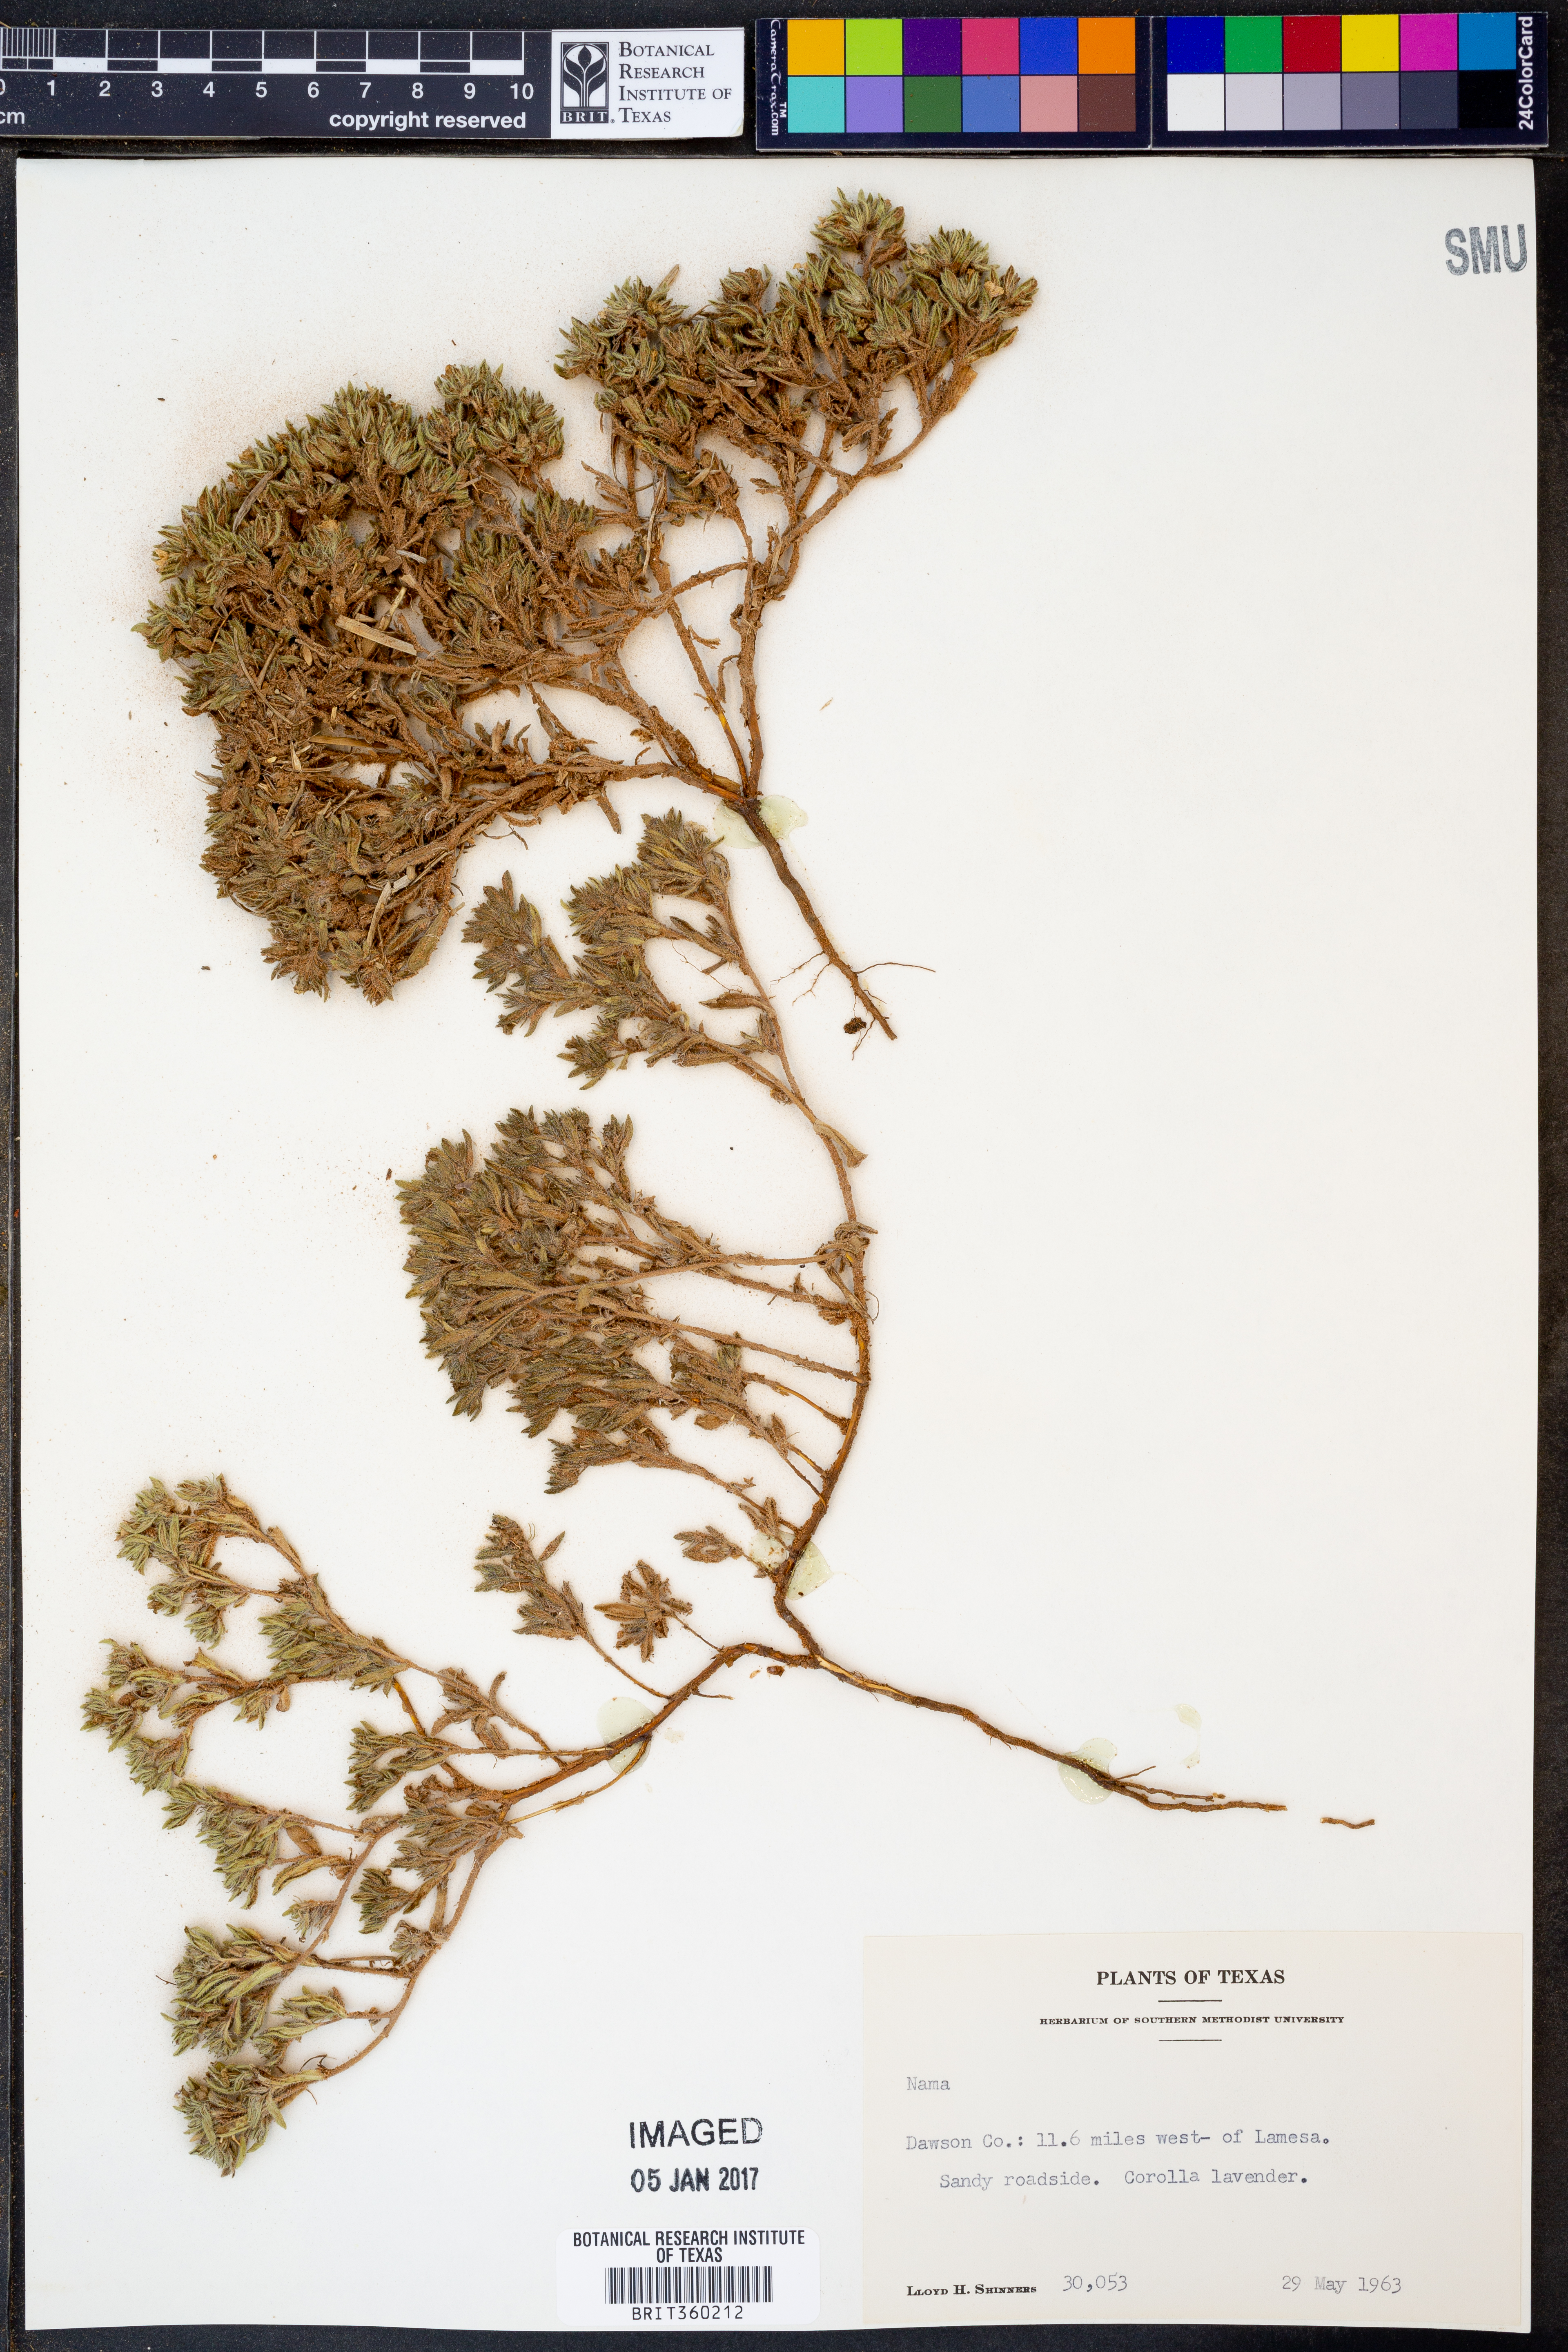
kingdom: Plantae
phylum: Tracheophyta
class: Magnoliopsida
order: Boraginales
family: Namaceae
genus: Nama
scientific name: Nama
